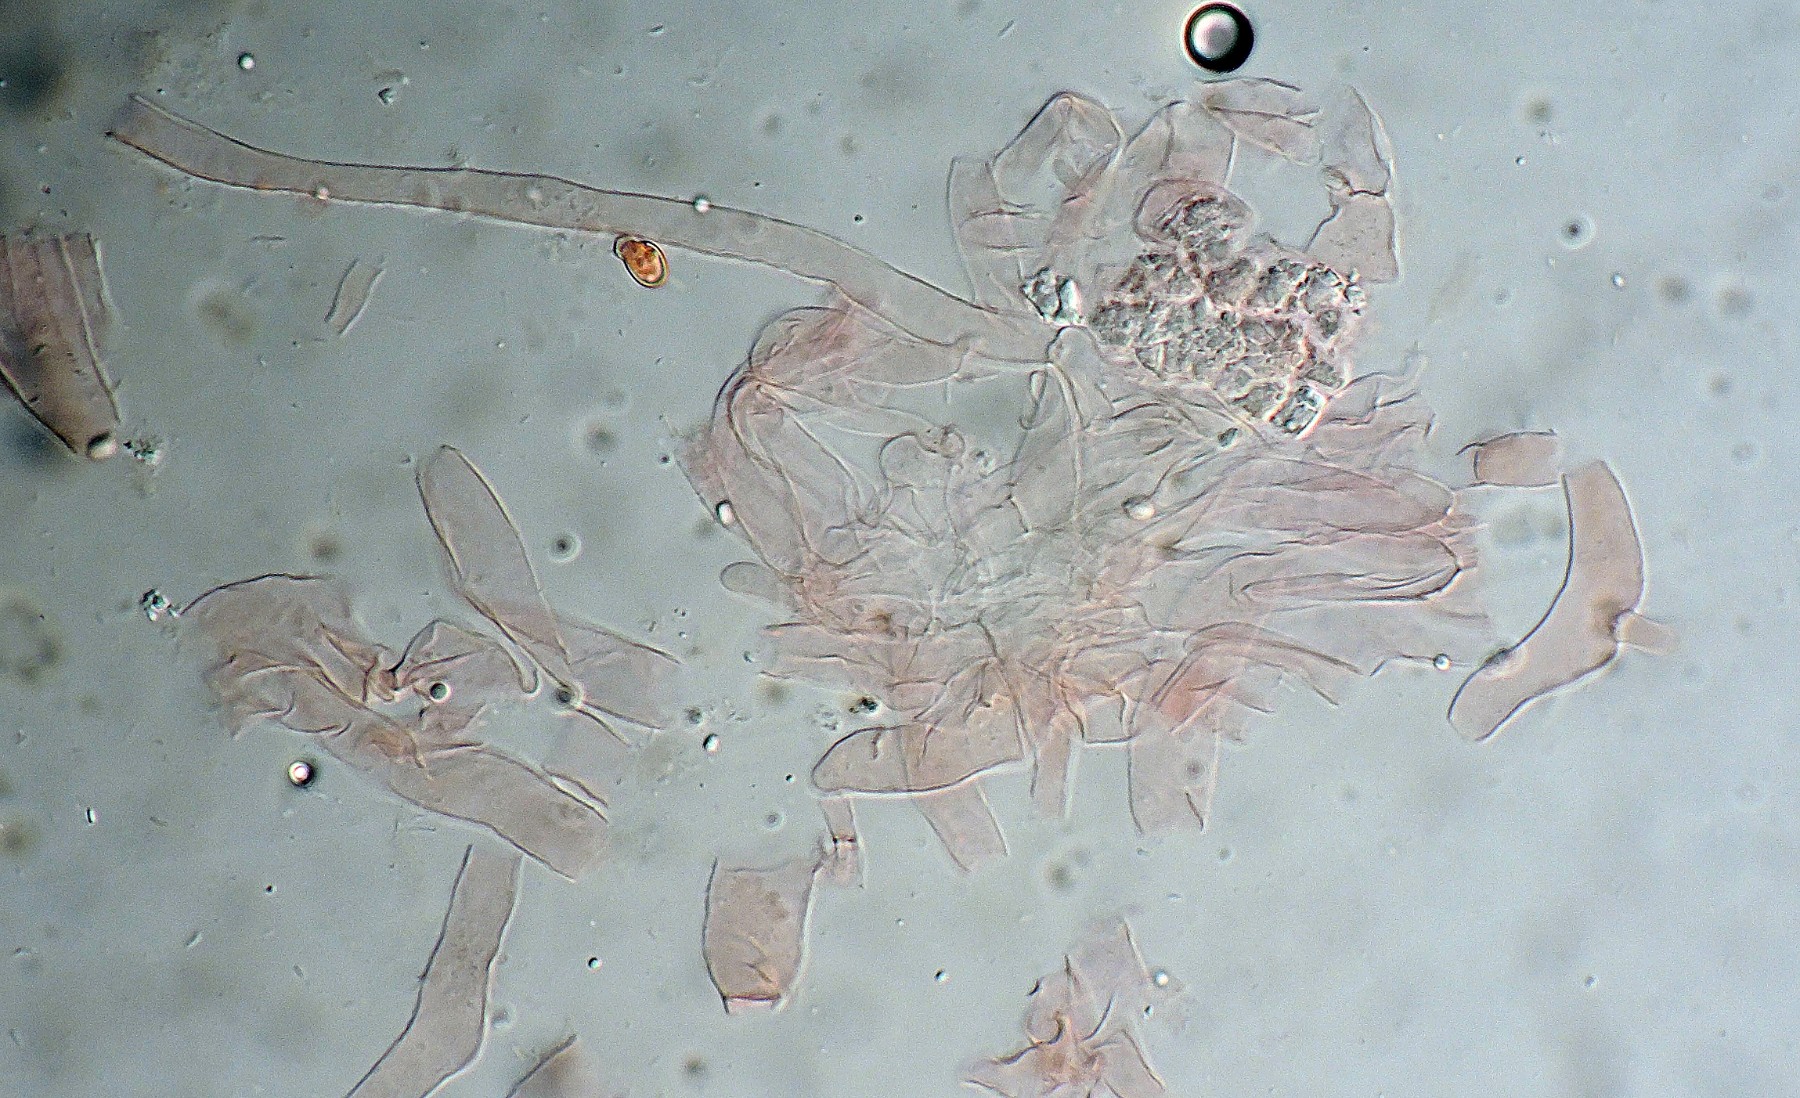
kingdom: Fungi
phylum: Basidiomycota
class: Agaricomycetes
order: Agaricales
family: Tricholomataceae
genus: Pseudobaeospora
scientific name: Pseudobaeospora paulochroma
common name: hvid røghat
